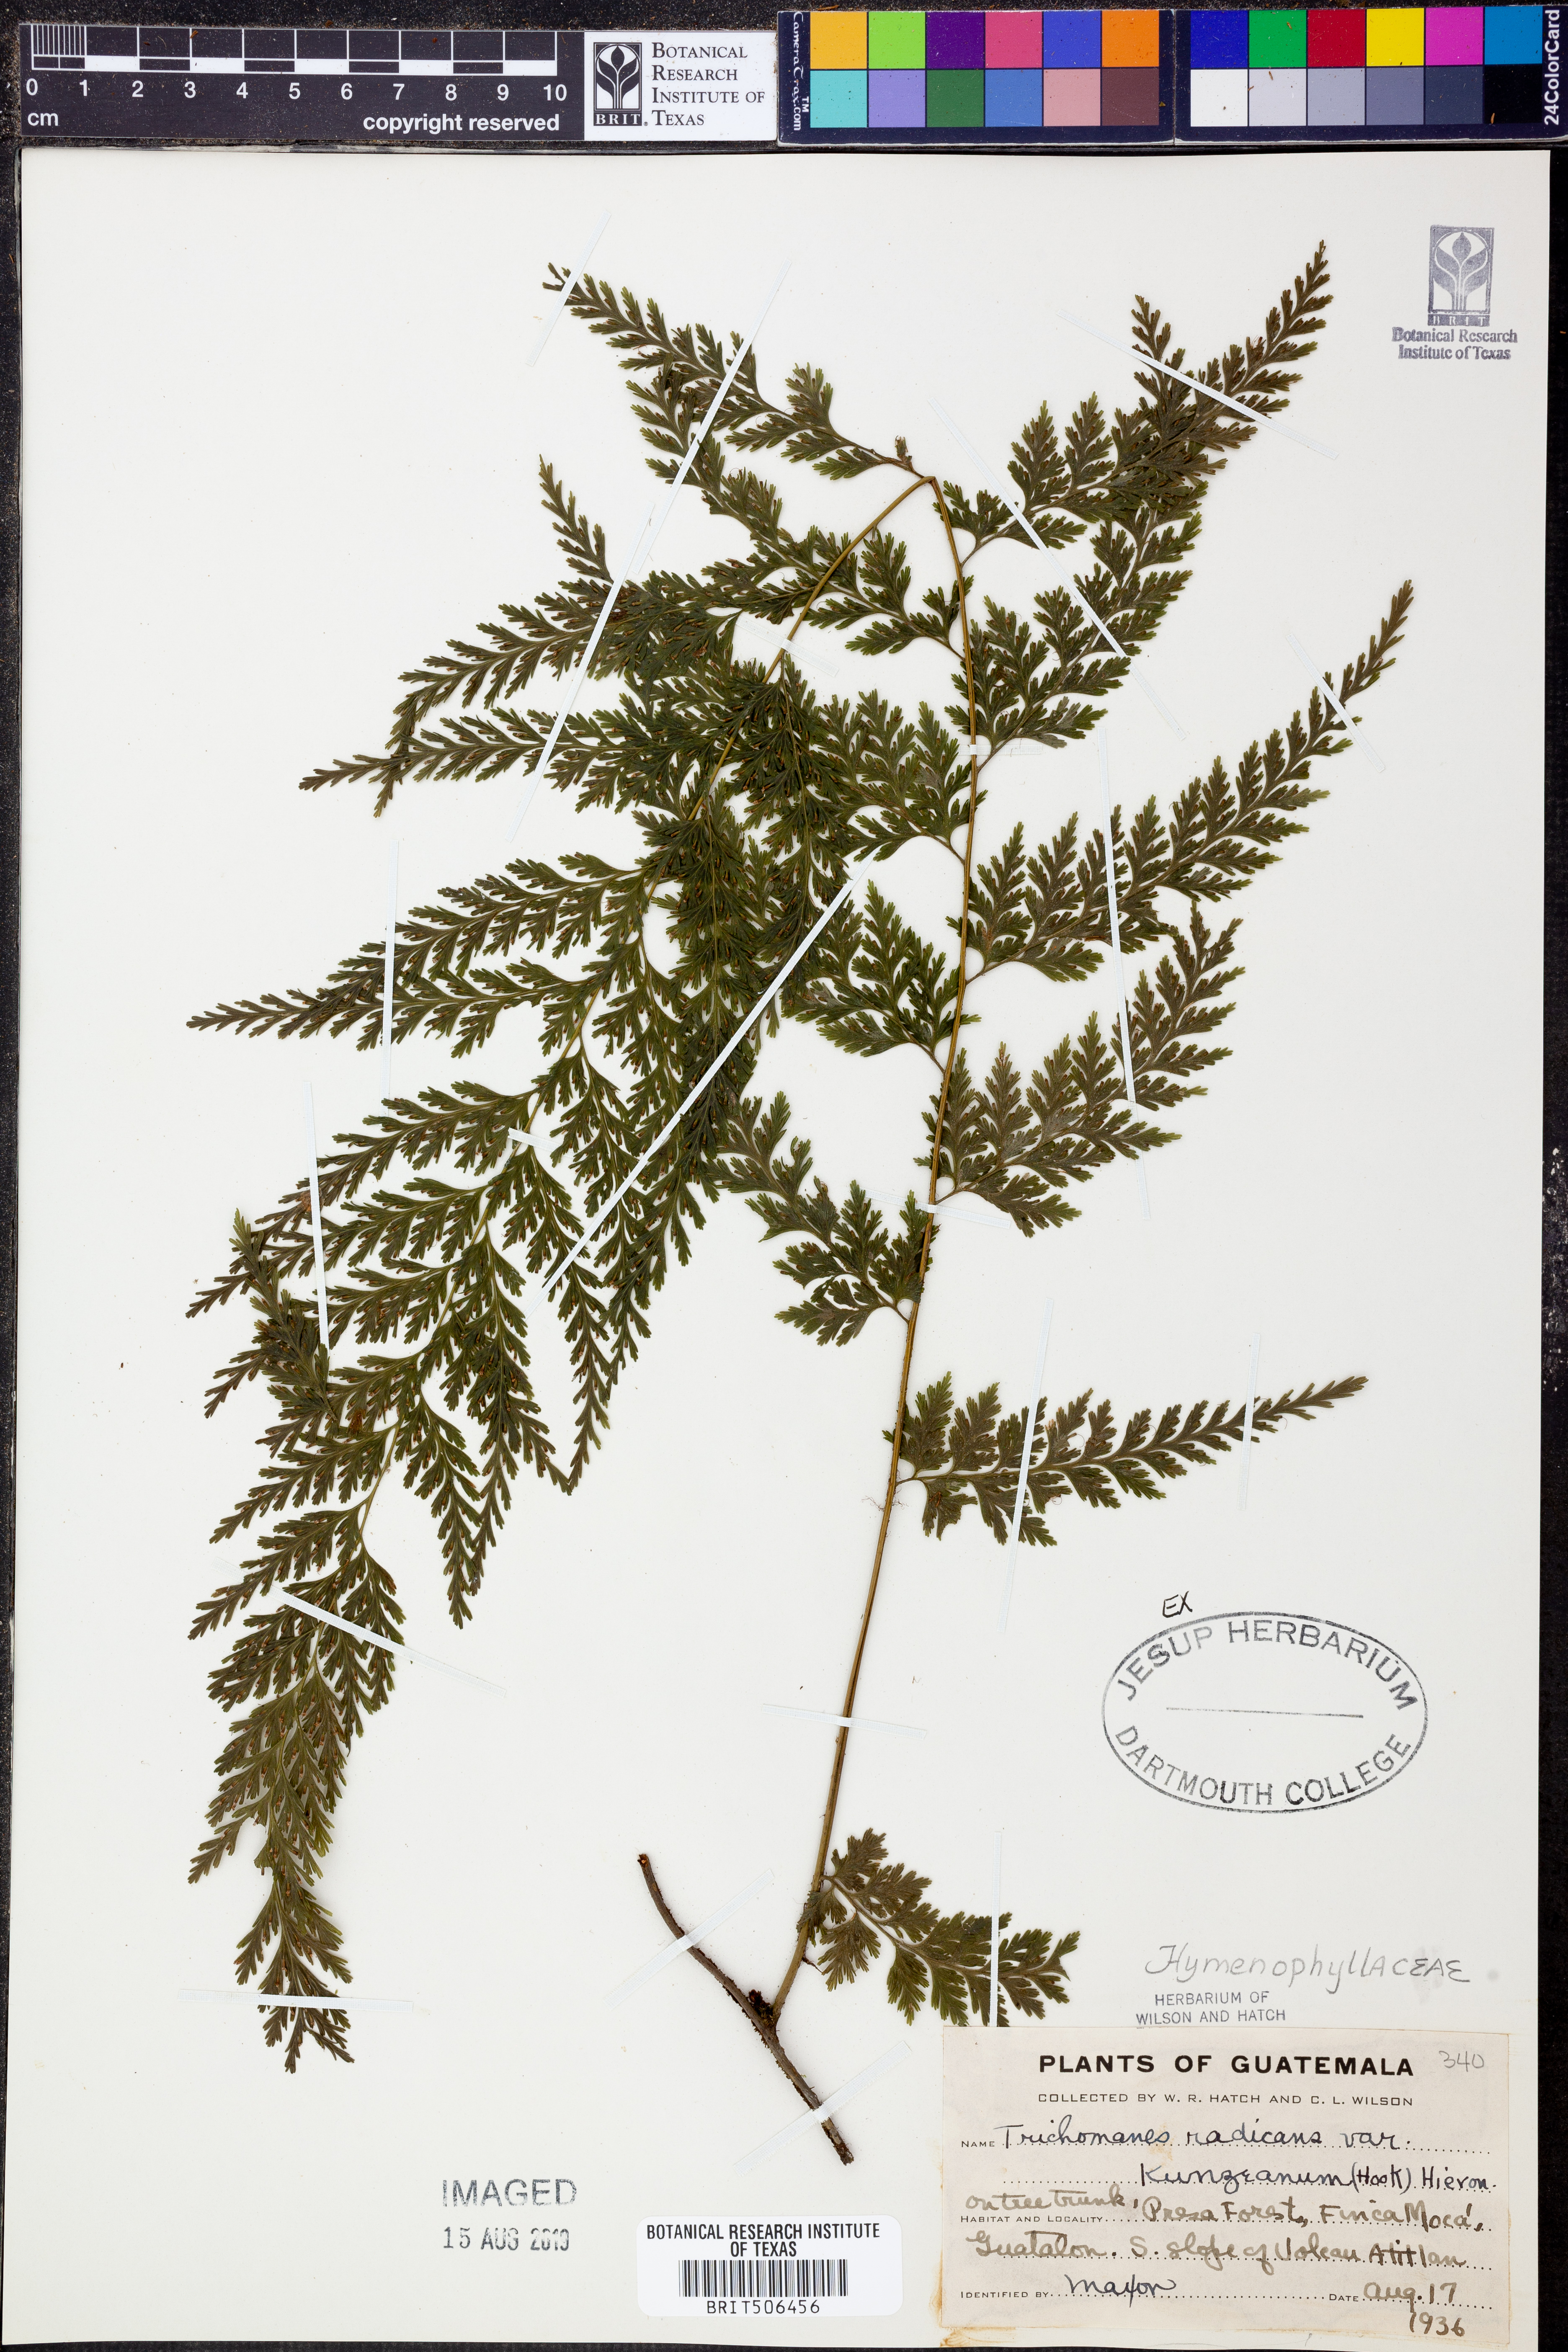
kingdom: Plantae
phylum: Tracheophyta
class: Polypodiopsida
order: Hymenophyllales
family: Hymenophyllaceae
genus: Vandenboschia
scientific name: Vandenboschia radicans
